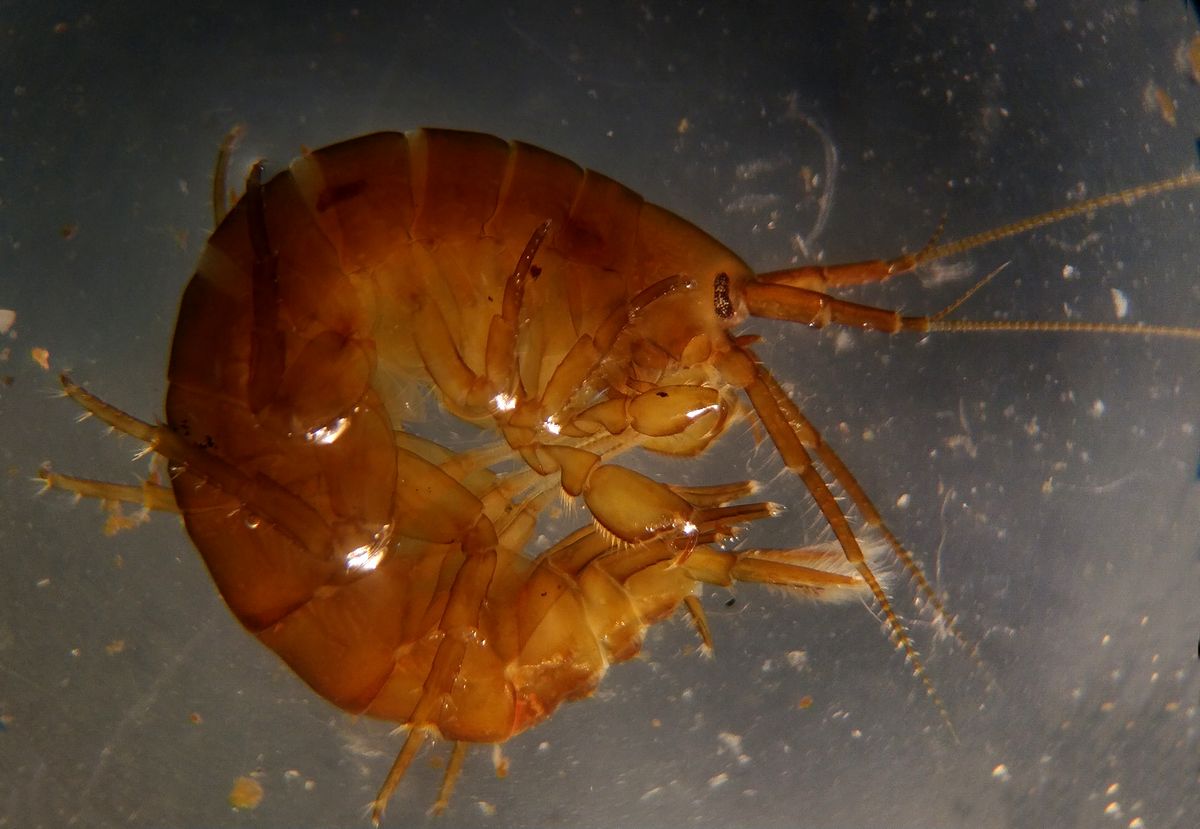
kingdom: Animalia
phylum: Arthropoda
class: Malacostraca
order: Amphipoda
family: Gammaridae
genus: Gammarus
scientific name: Gammarus setosus
